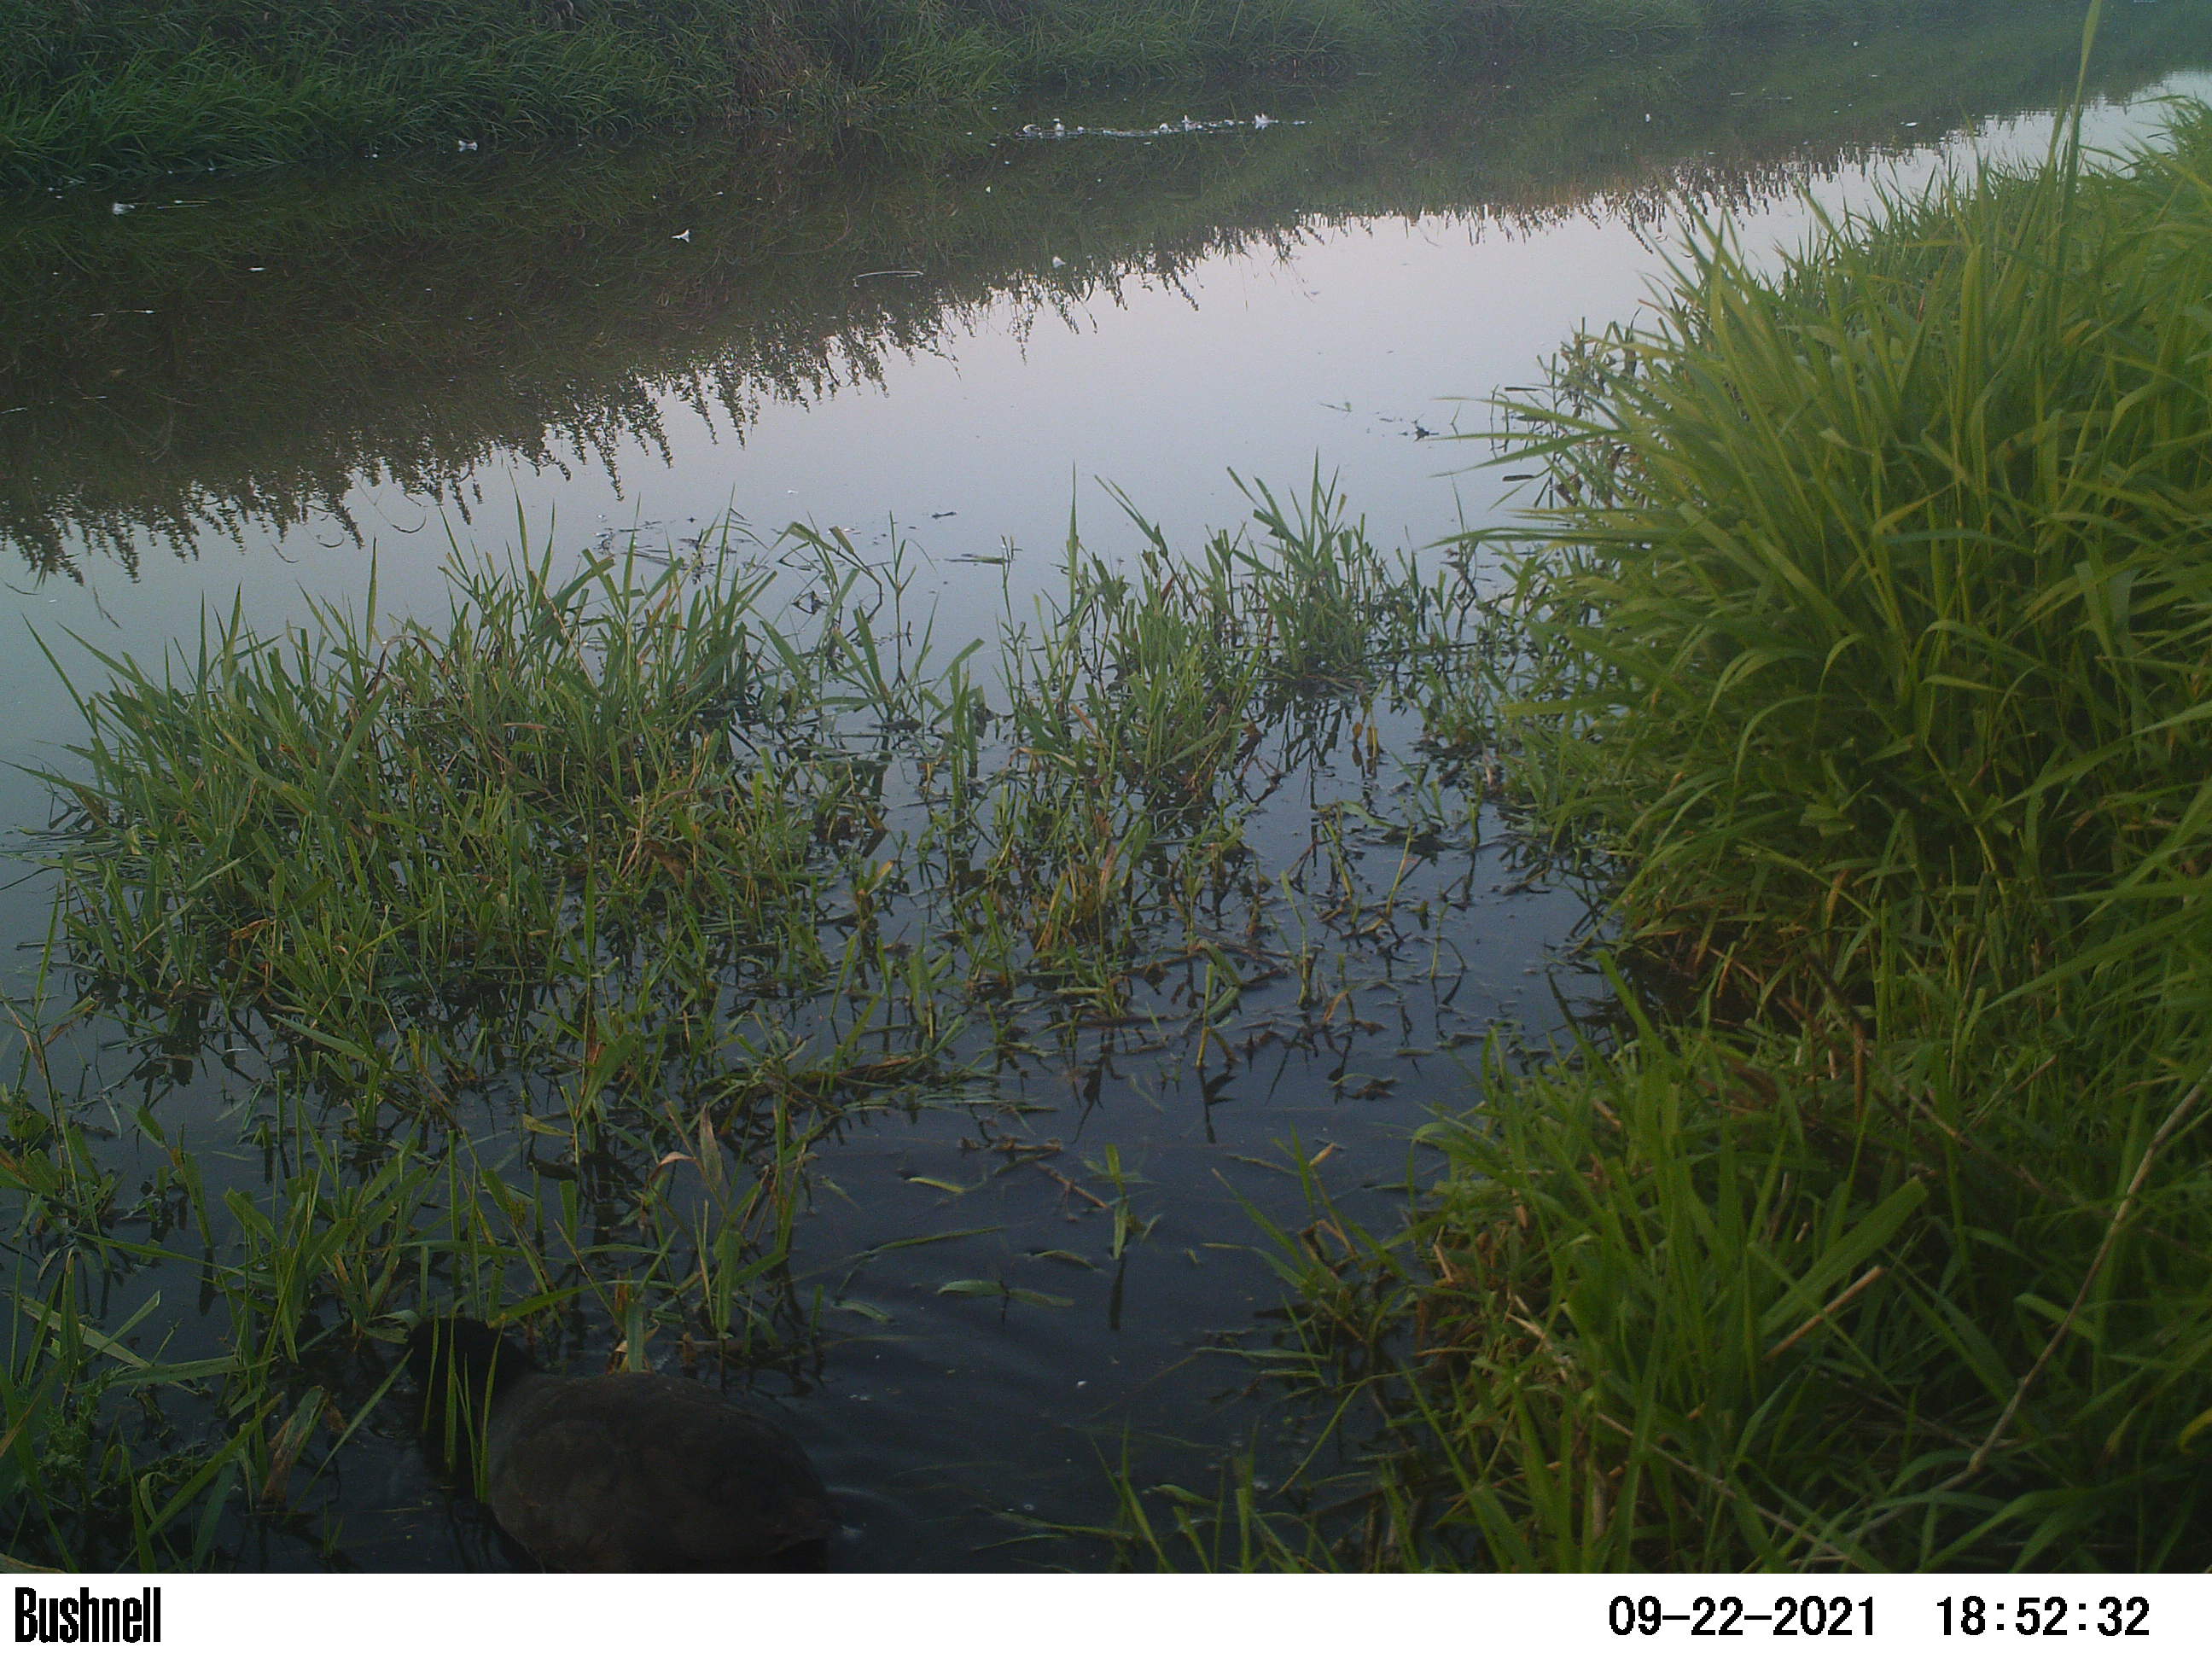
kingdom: Animalia
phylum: Chordata
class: Aves
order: Gruiformes
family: Rallidae
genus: Fulica
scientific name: Fulica atra
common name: Eurasian coot
